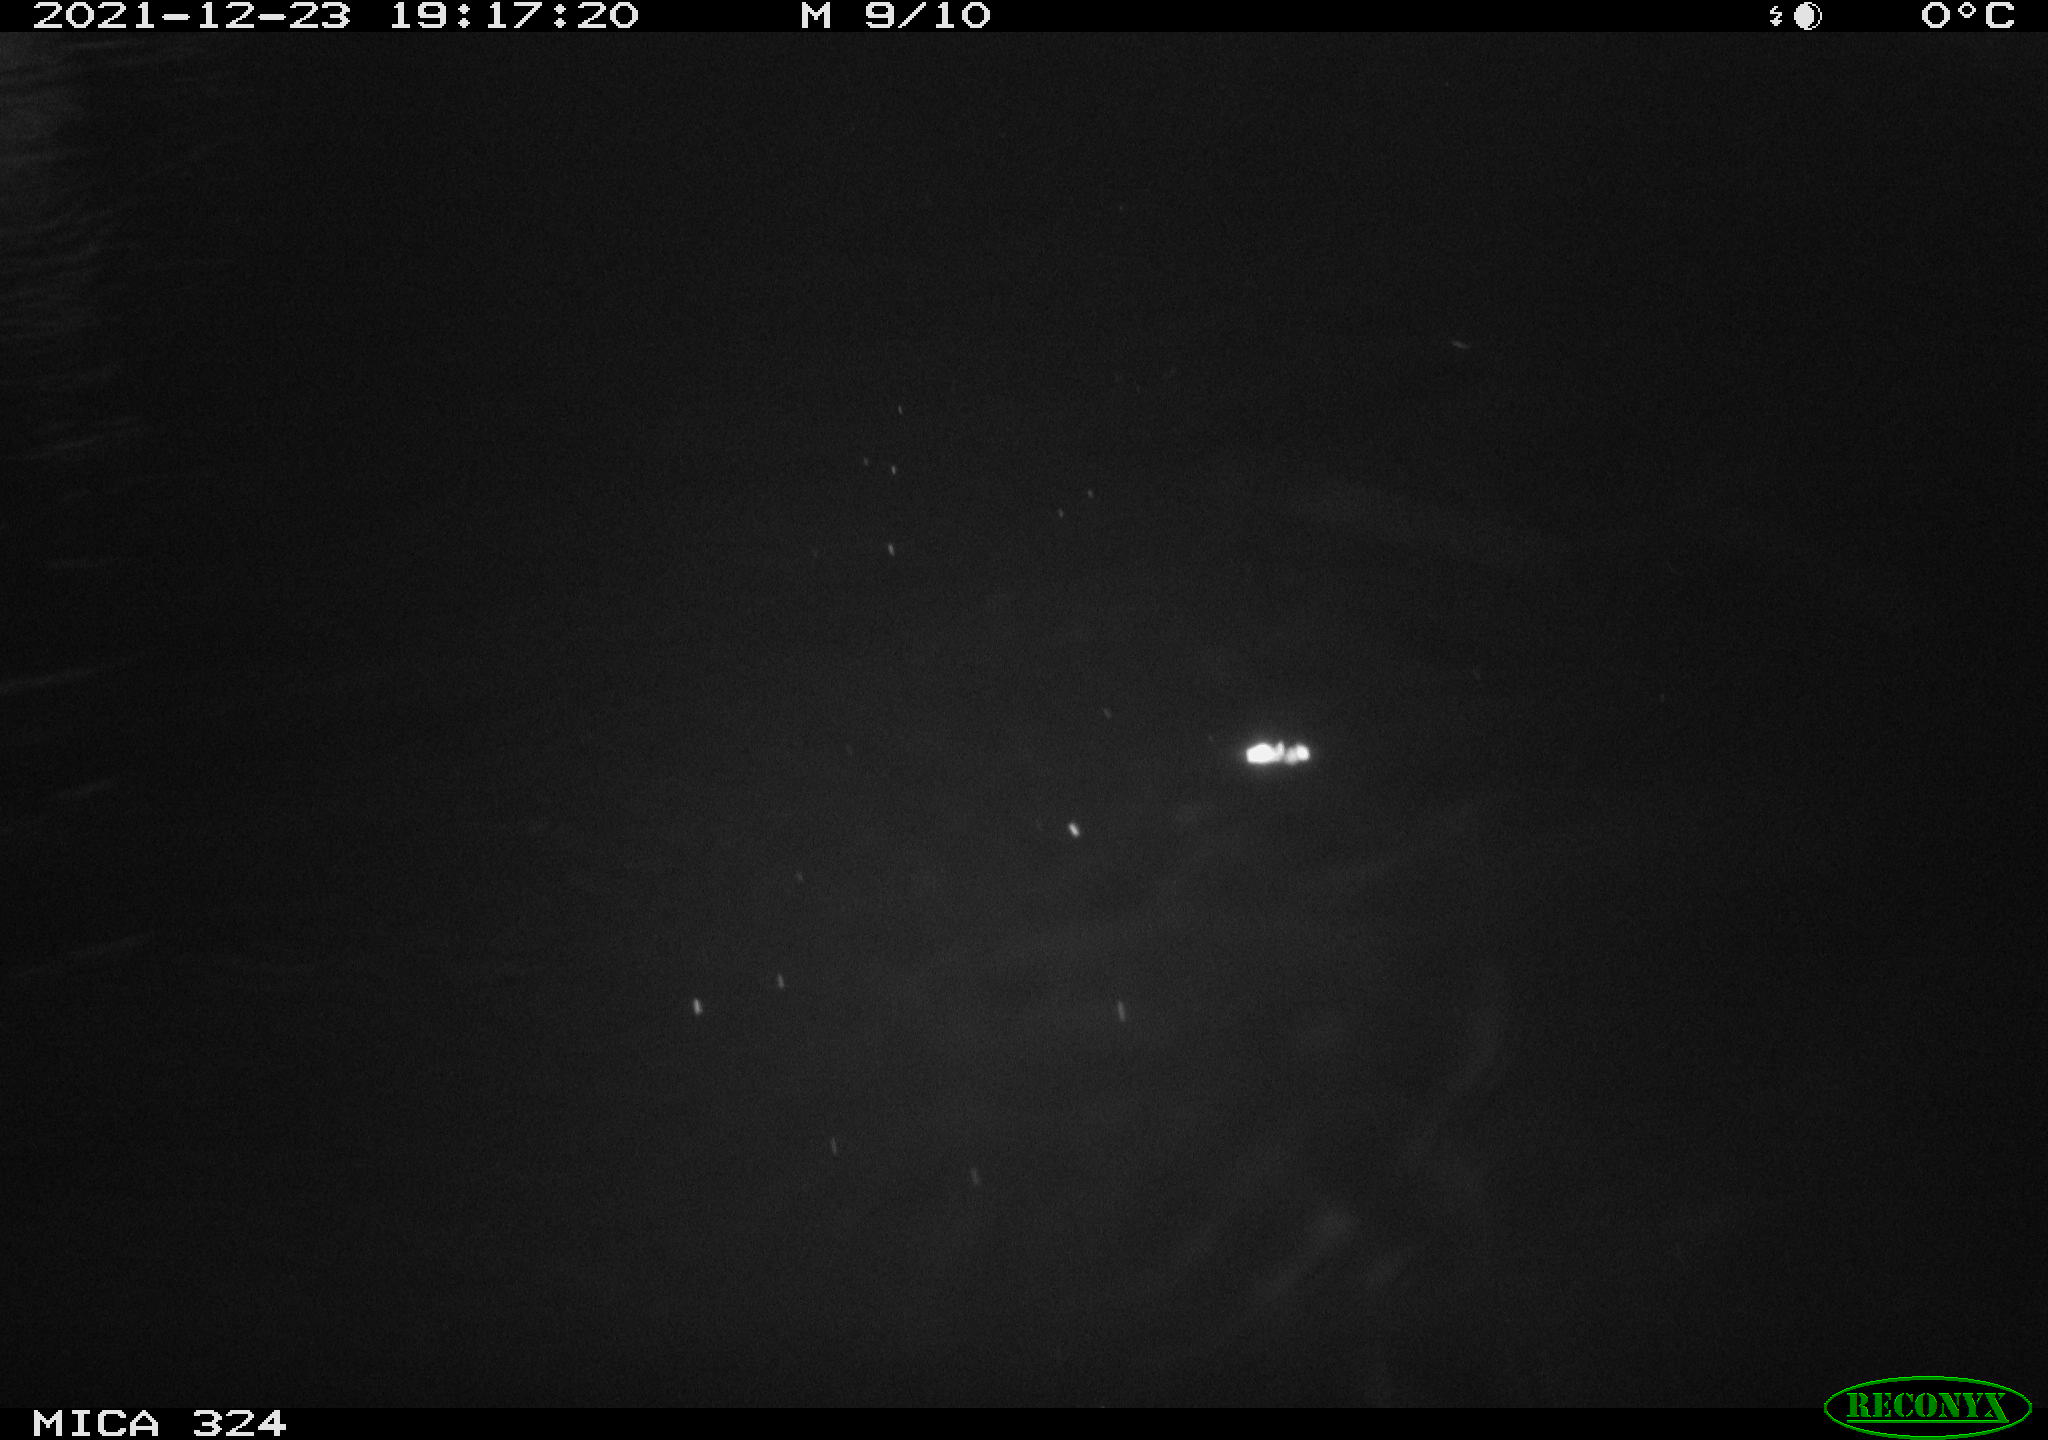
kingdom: Animalia
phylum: Chordata
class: Mammalia
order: Rodentia
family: Cricetidae
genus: Ondatra
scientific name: Ondatra zibethicus
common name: Muskrat
